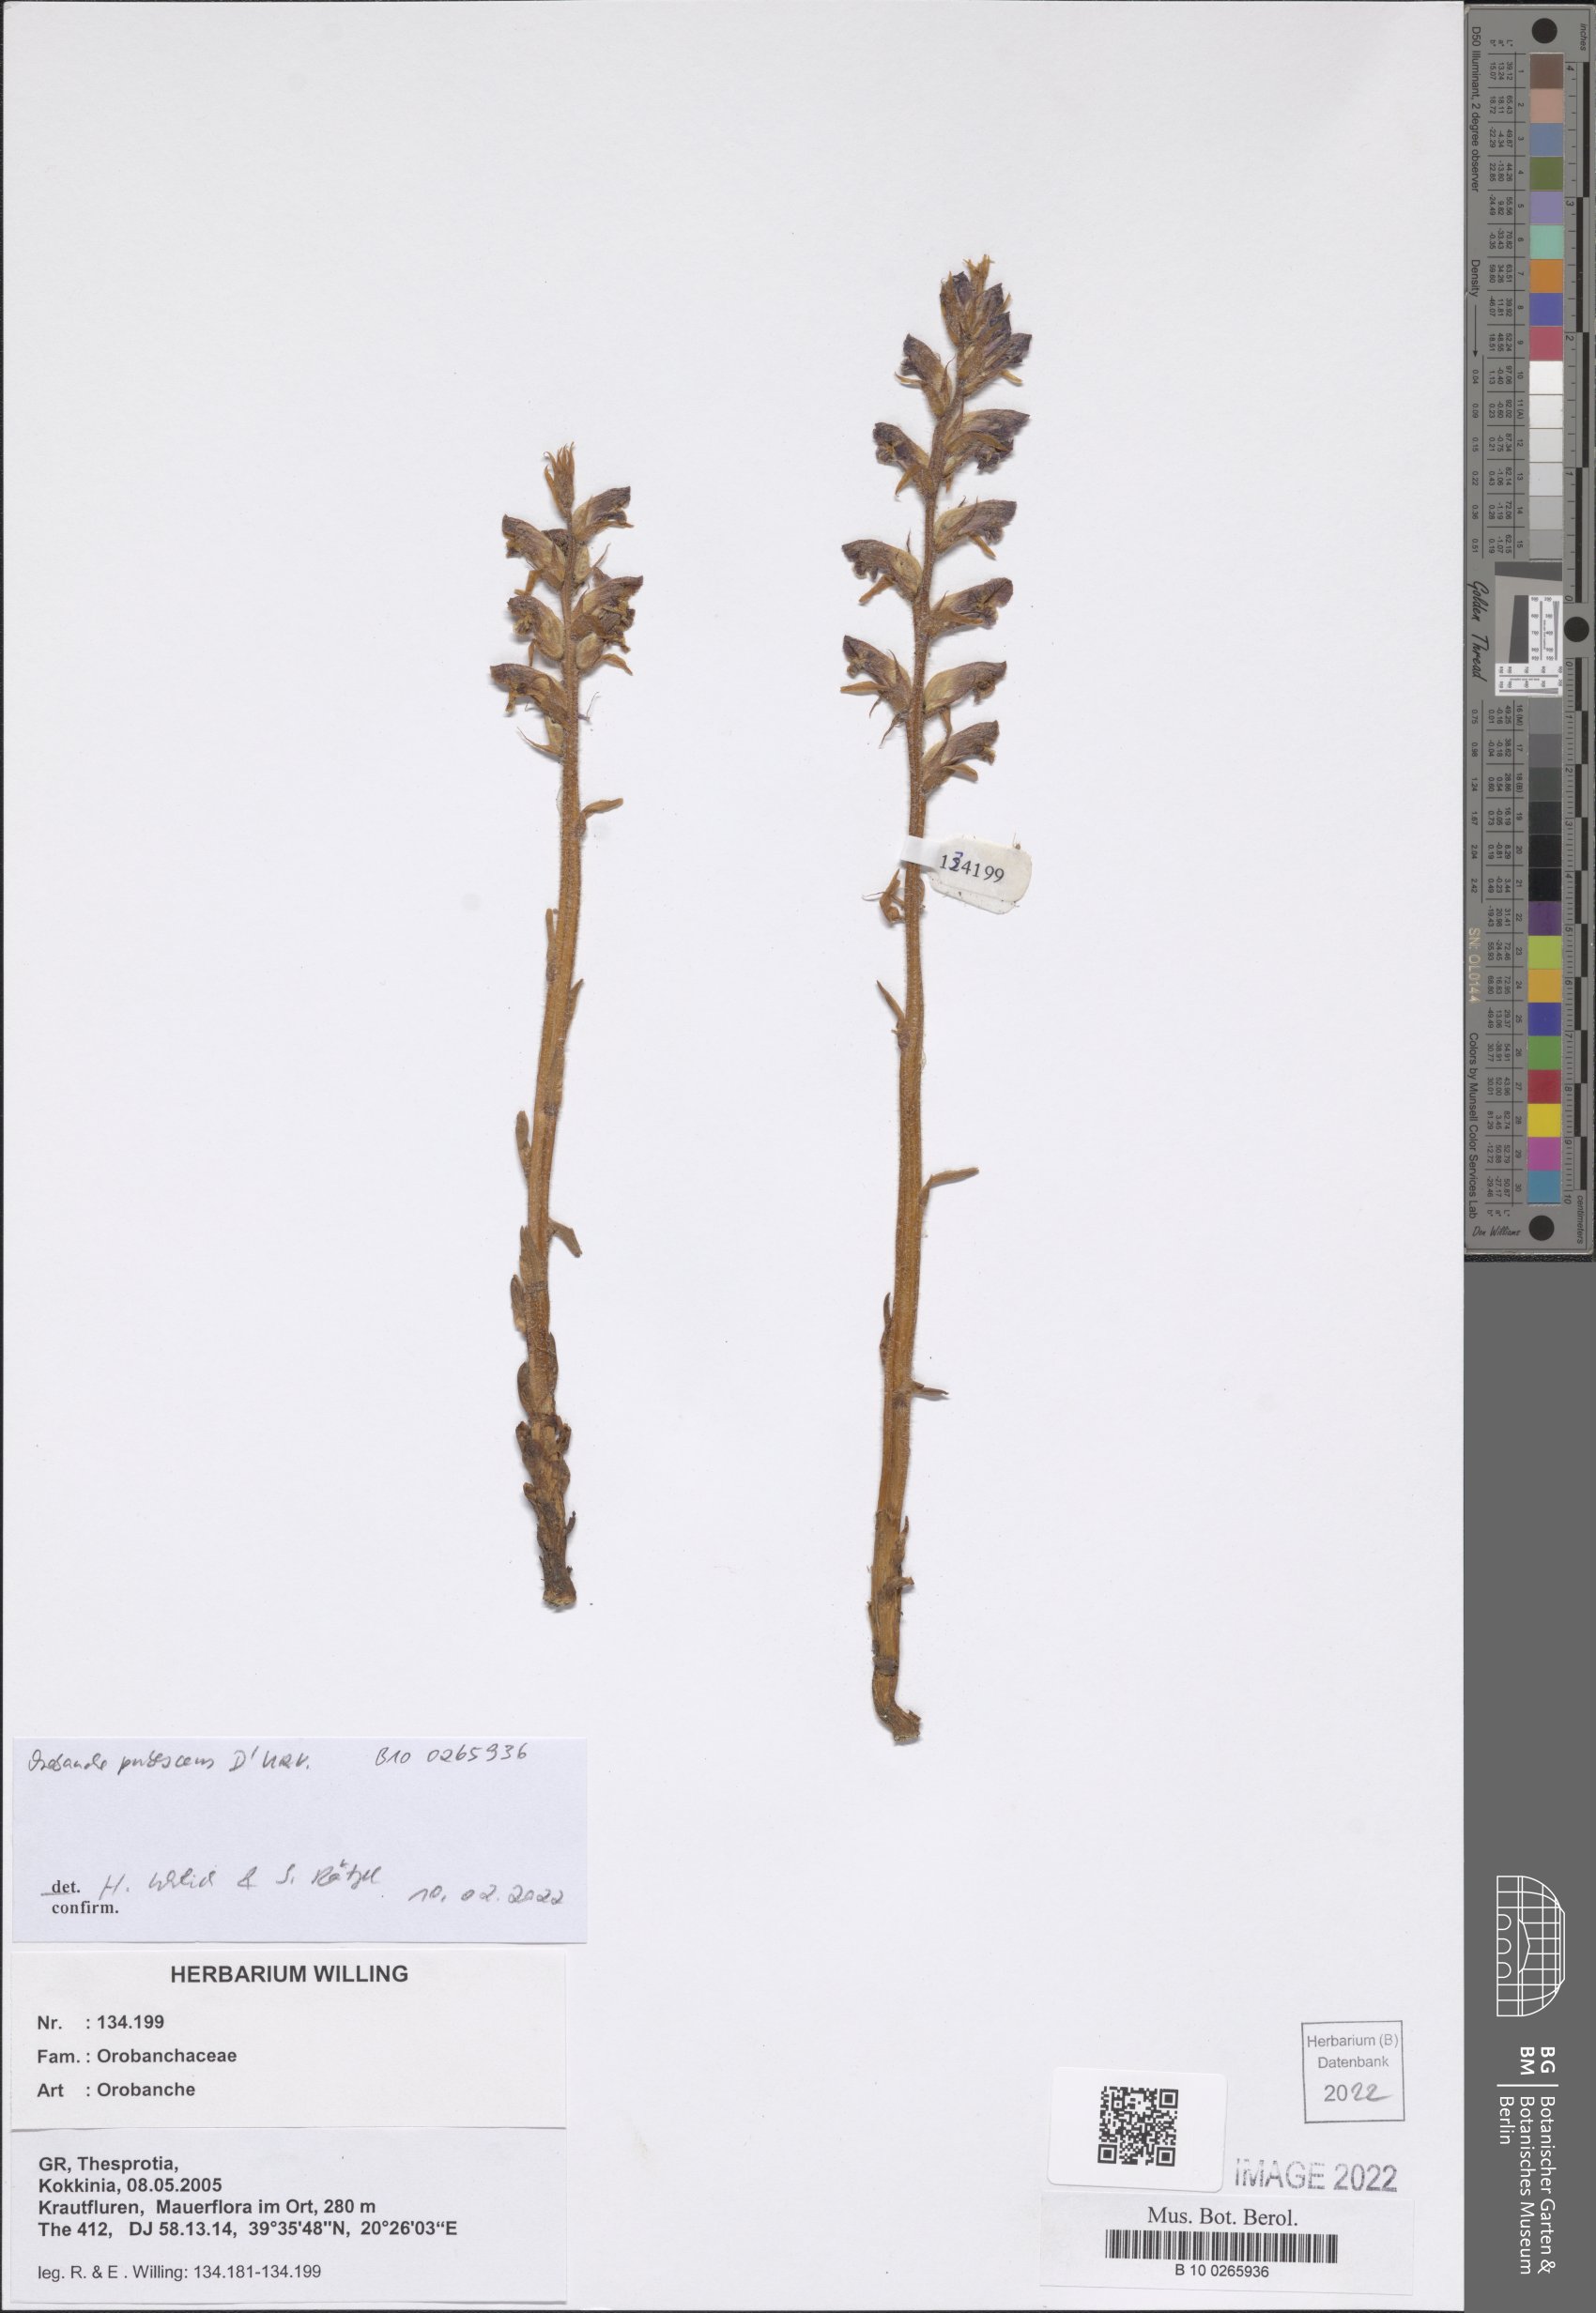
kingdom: Plantae
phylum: Tracheophyta
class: Magnoliopsida
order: Lamiales
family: Orobanchaceae
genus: Orobanche
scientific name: Orobanche pubescens
